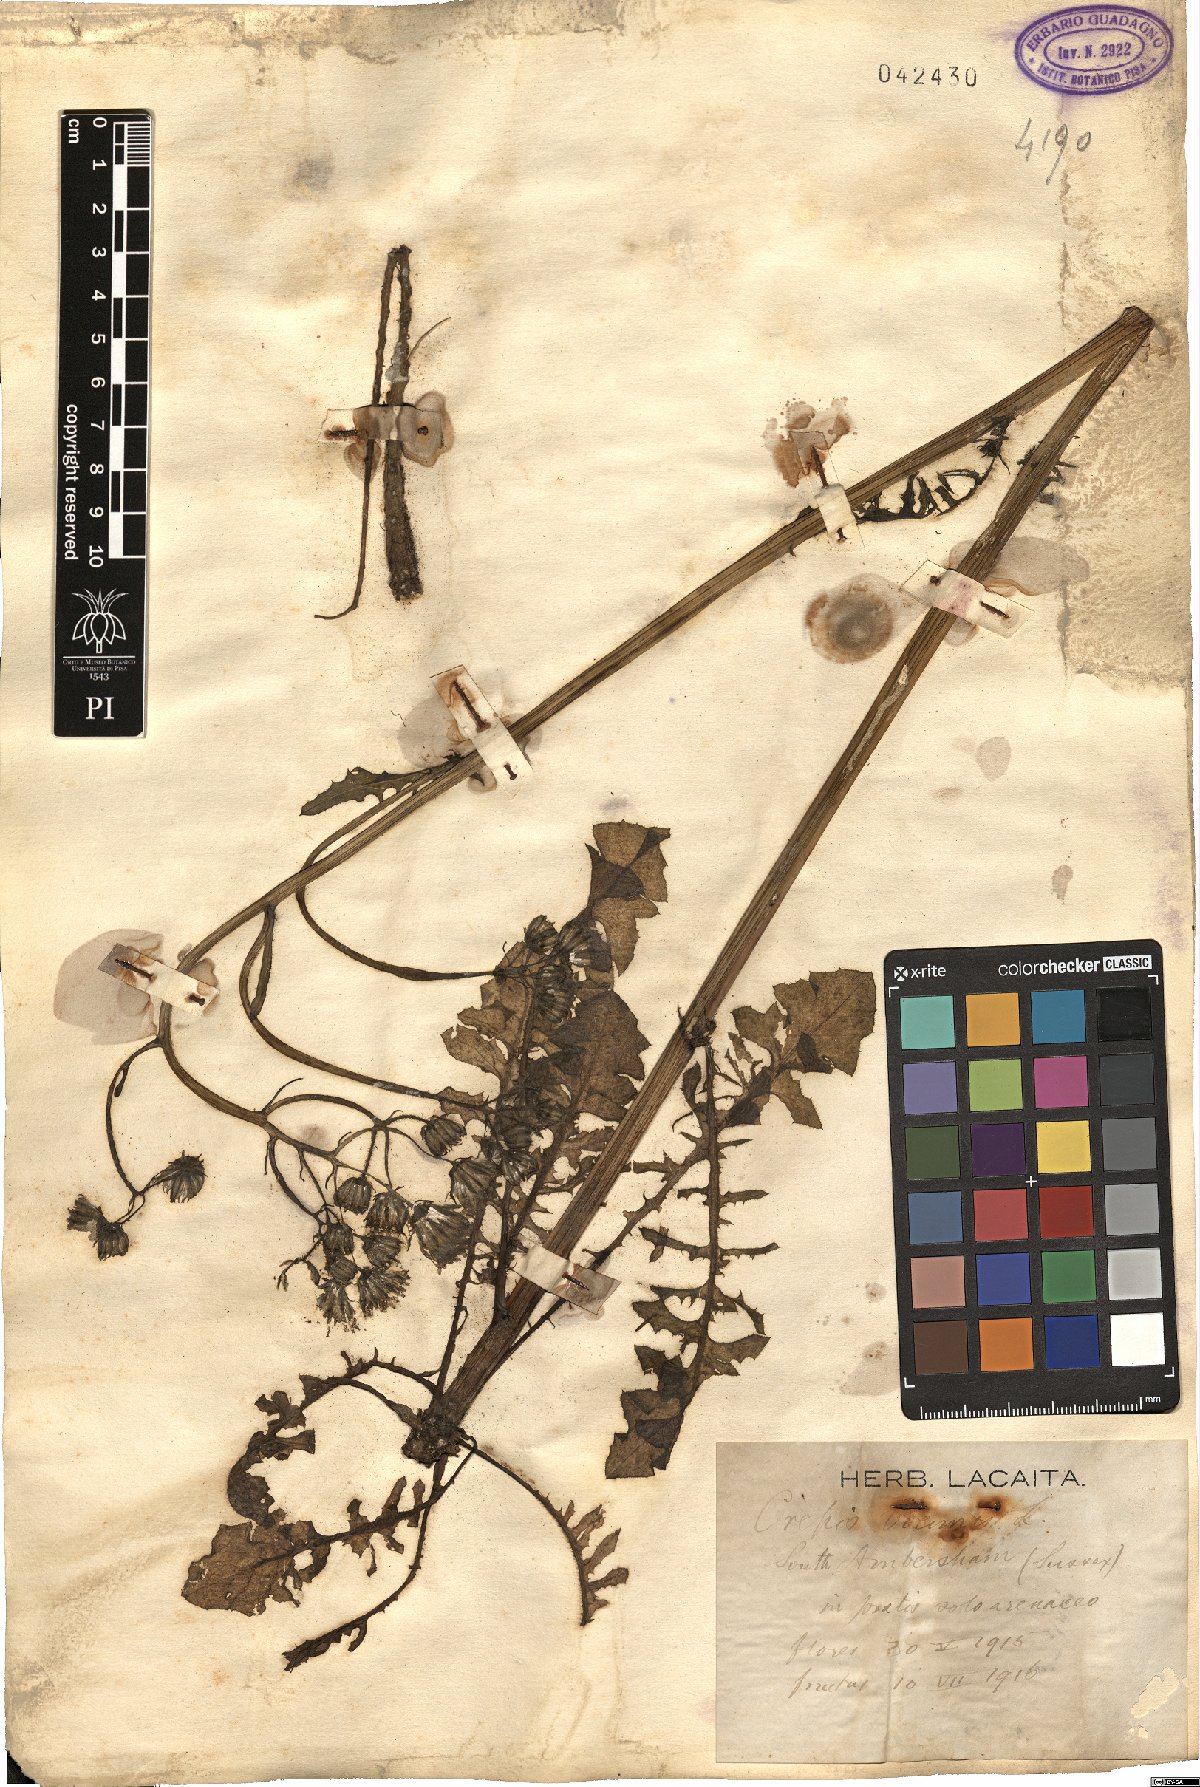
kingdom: Plantae
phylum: Tracheophyta
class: Magnoliopsida
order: Asterales
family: Asteraceae
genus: Crepis
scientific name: Crepis capillaris
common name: Smooth hawksbeard
